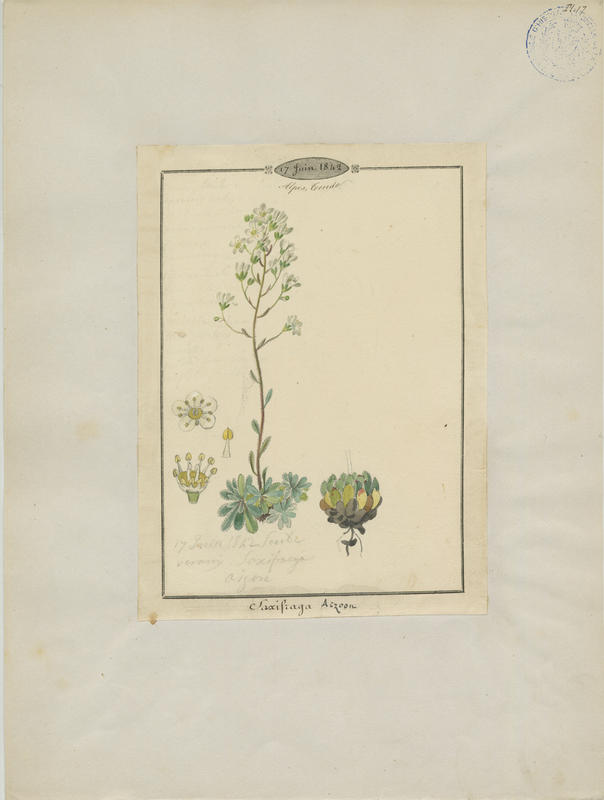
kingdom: Plantae
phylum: Tracheophyta
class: Magnoliopsida
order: Saxifragales
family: Saxifragaceae
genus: Saxifraga
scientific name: Saxifraga paniculata
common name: Livelong saxifrage
